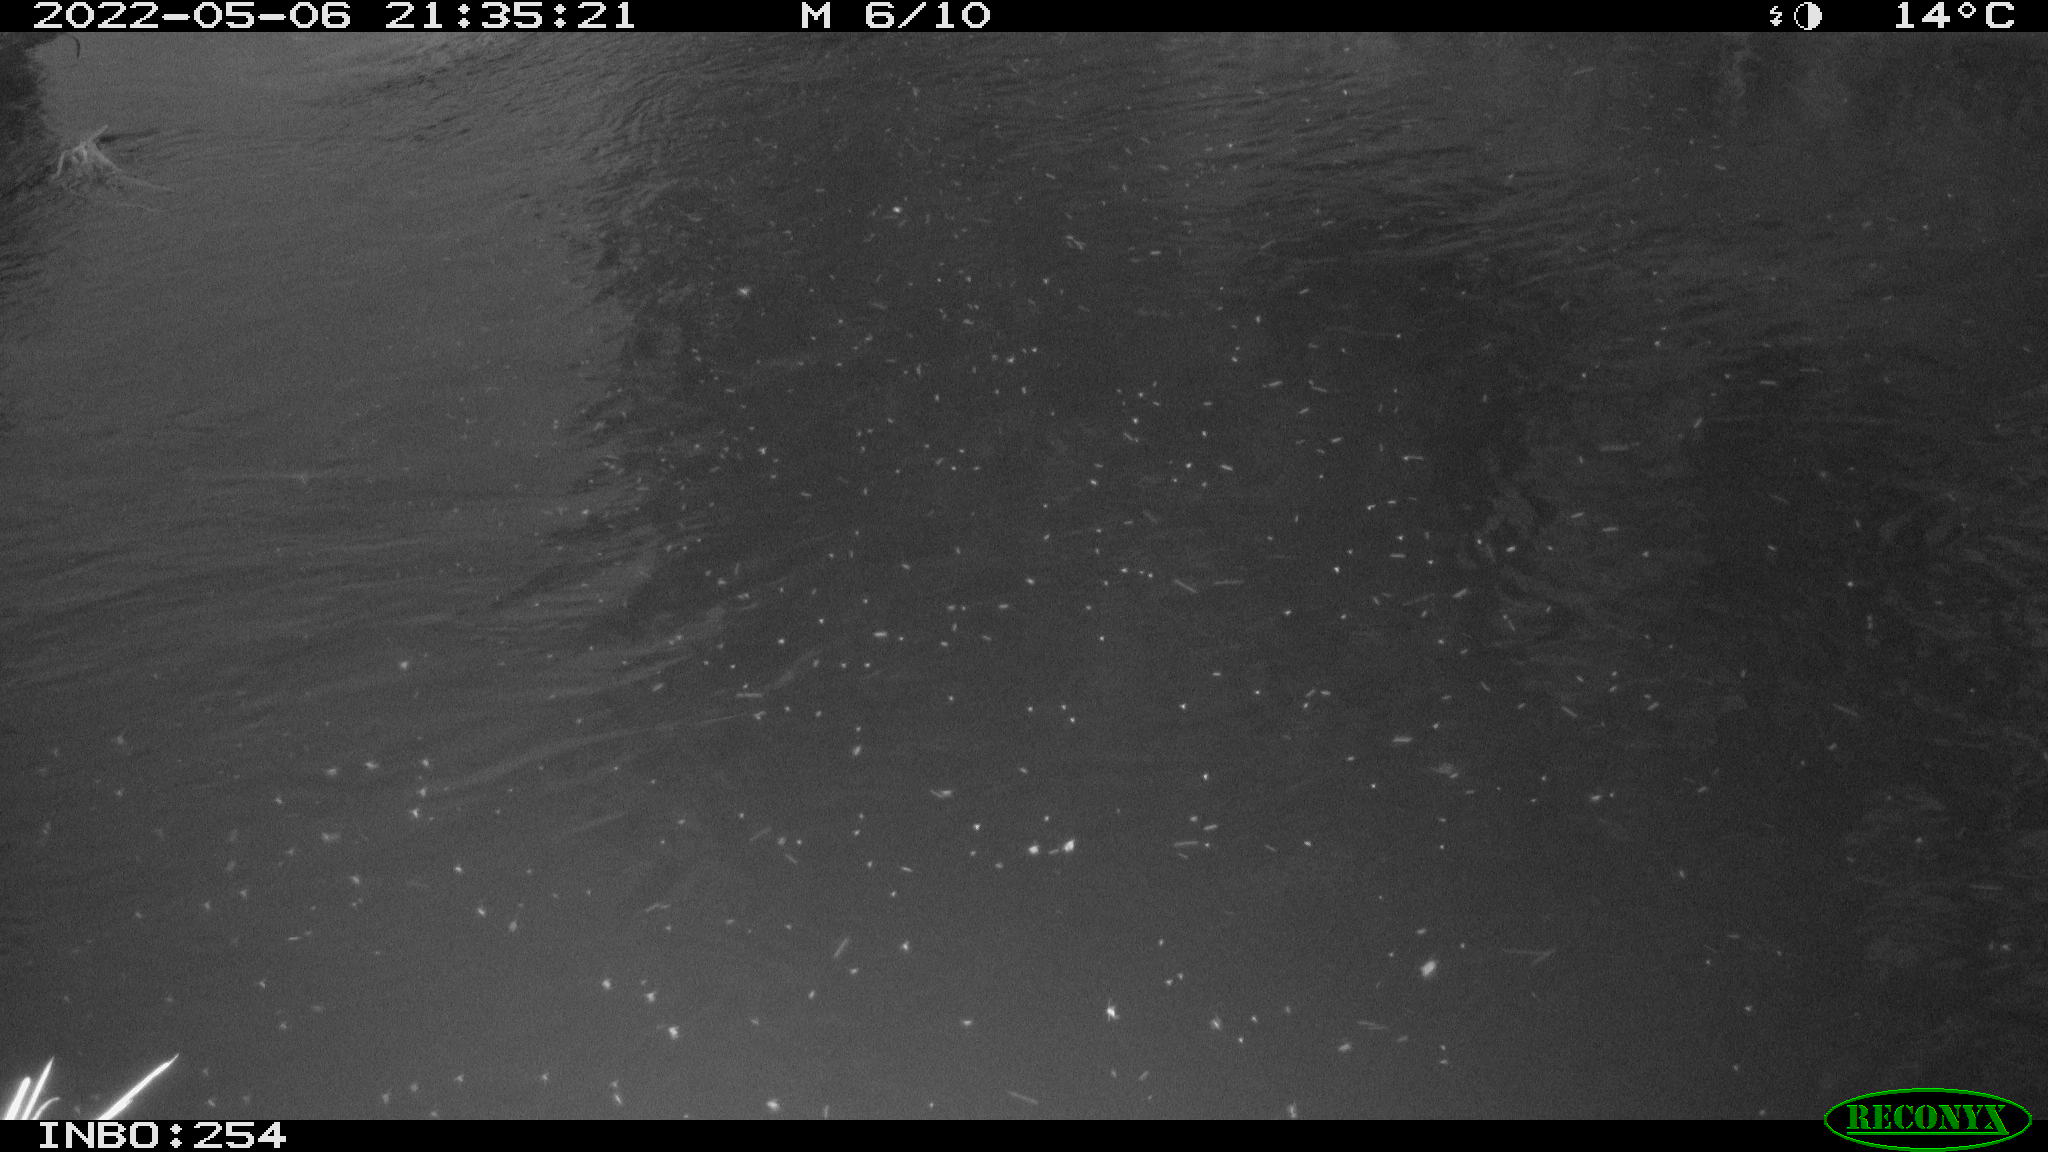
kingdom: Animalia
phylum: Chordata
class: Aves
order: Anseriformes
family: Anatidae
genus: Anas
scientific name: Anas platyrhynchos
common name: Mallard
